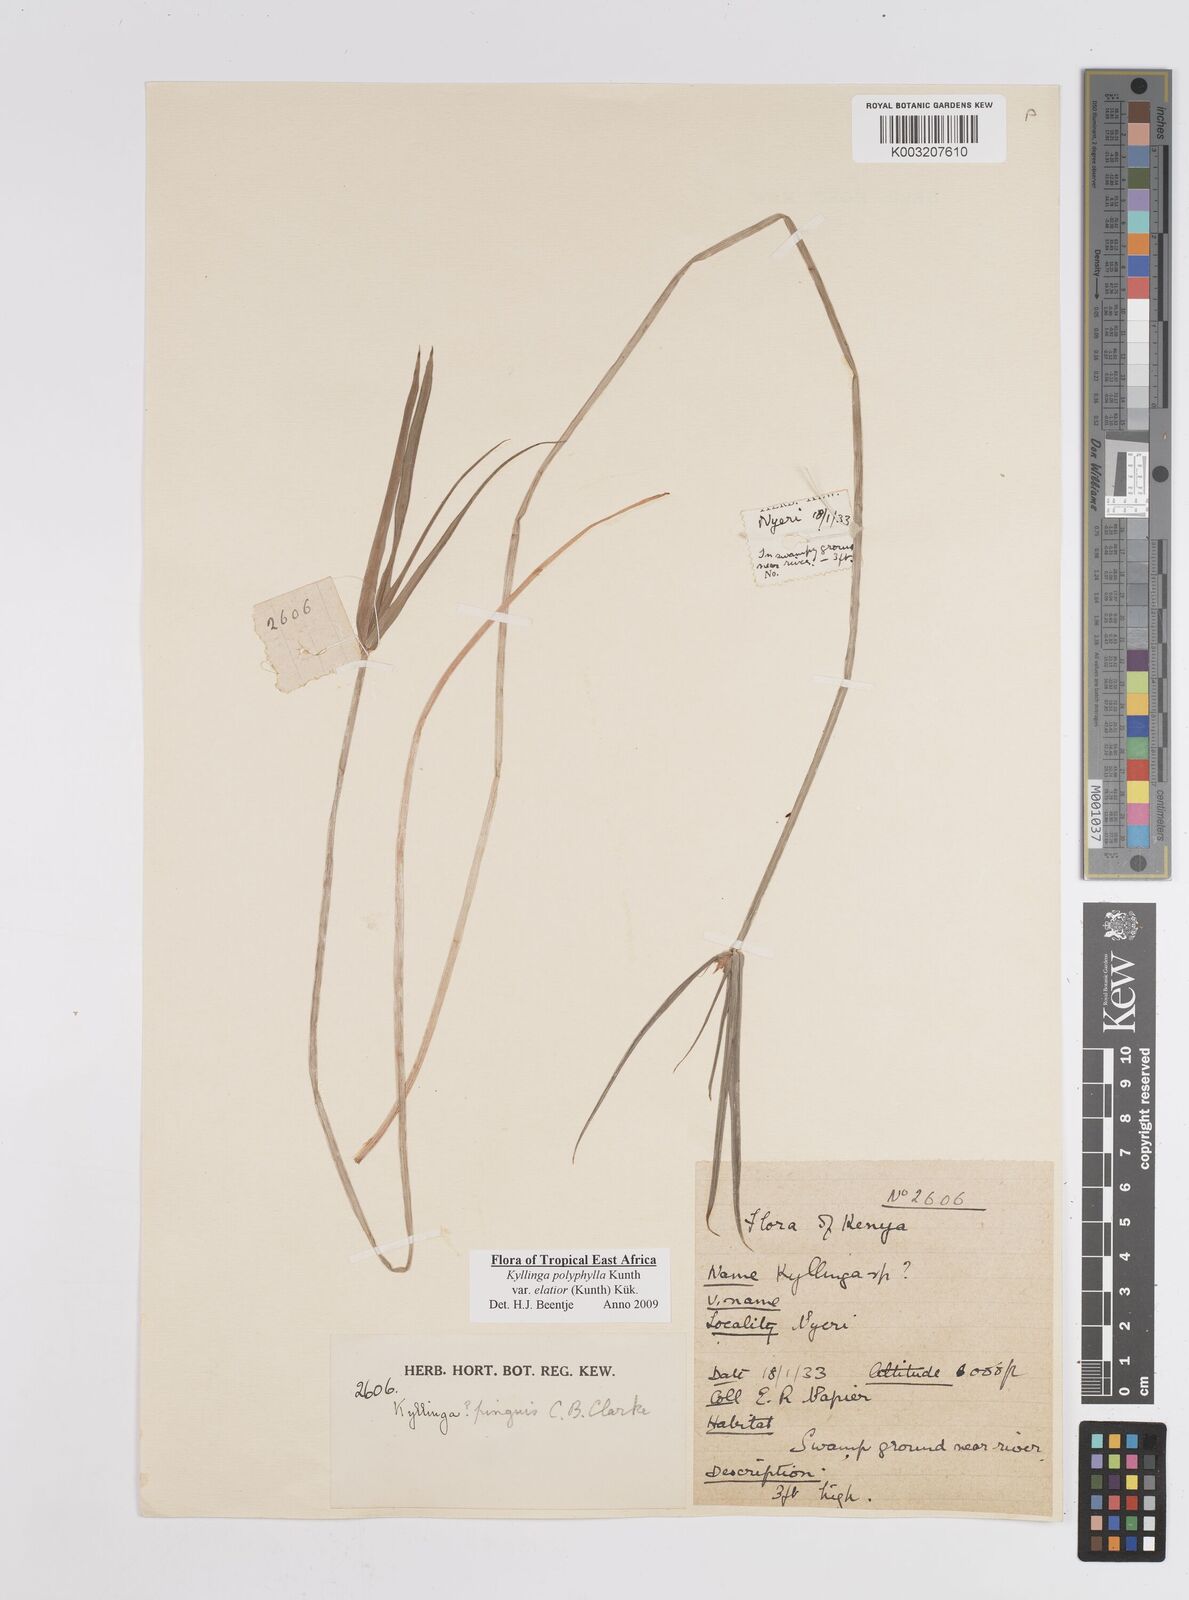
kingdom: Plantae
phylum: Tracheophyta
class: Liliopsida
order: Poales
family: Cyperaceae
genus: Cyperus
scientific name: Cyperus
